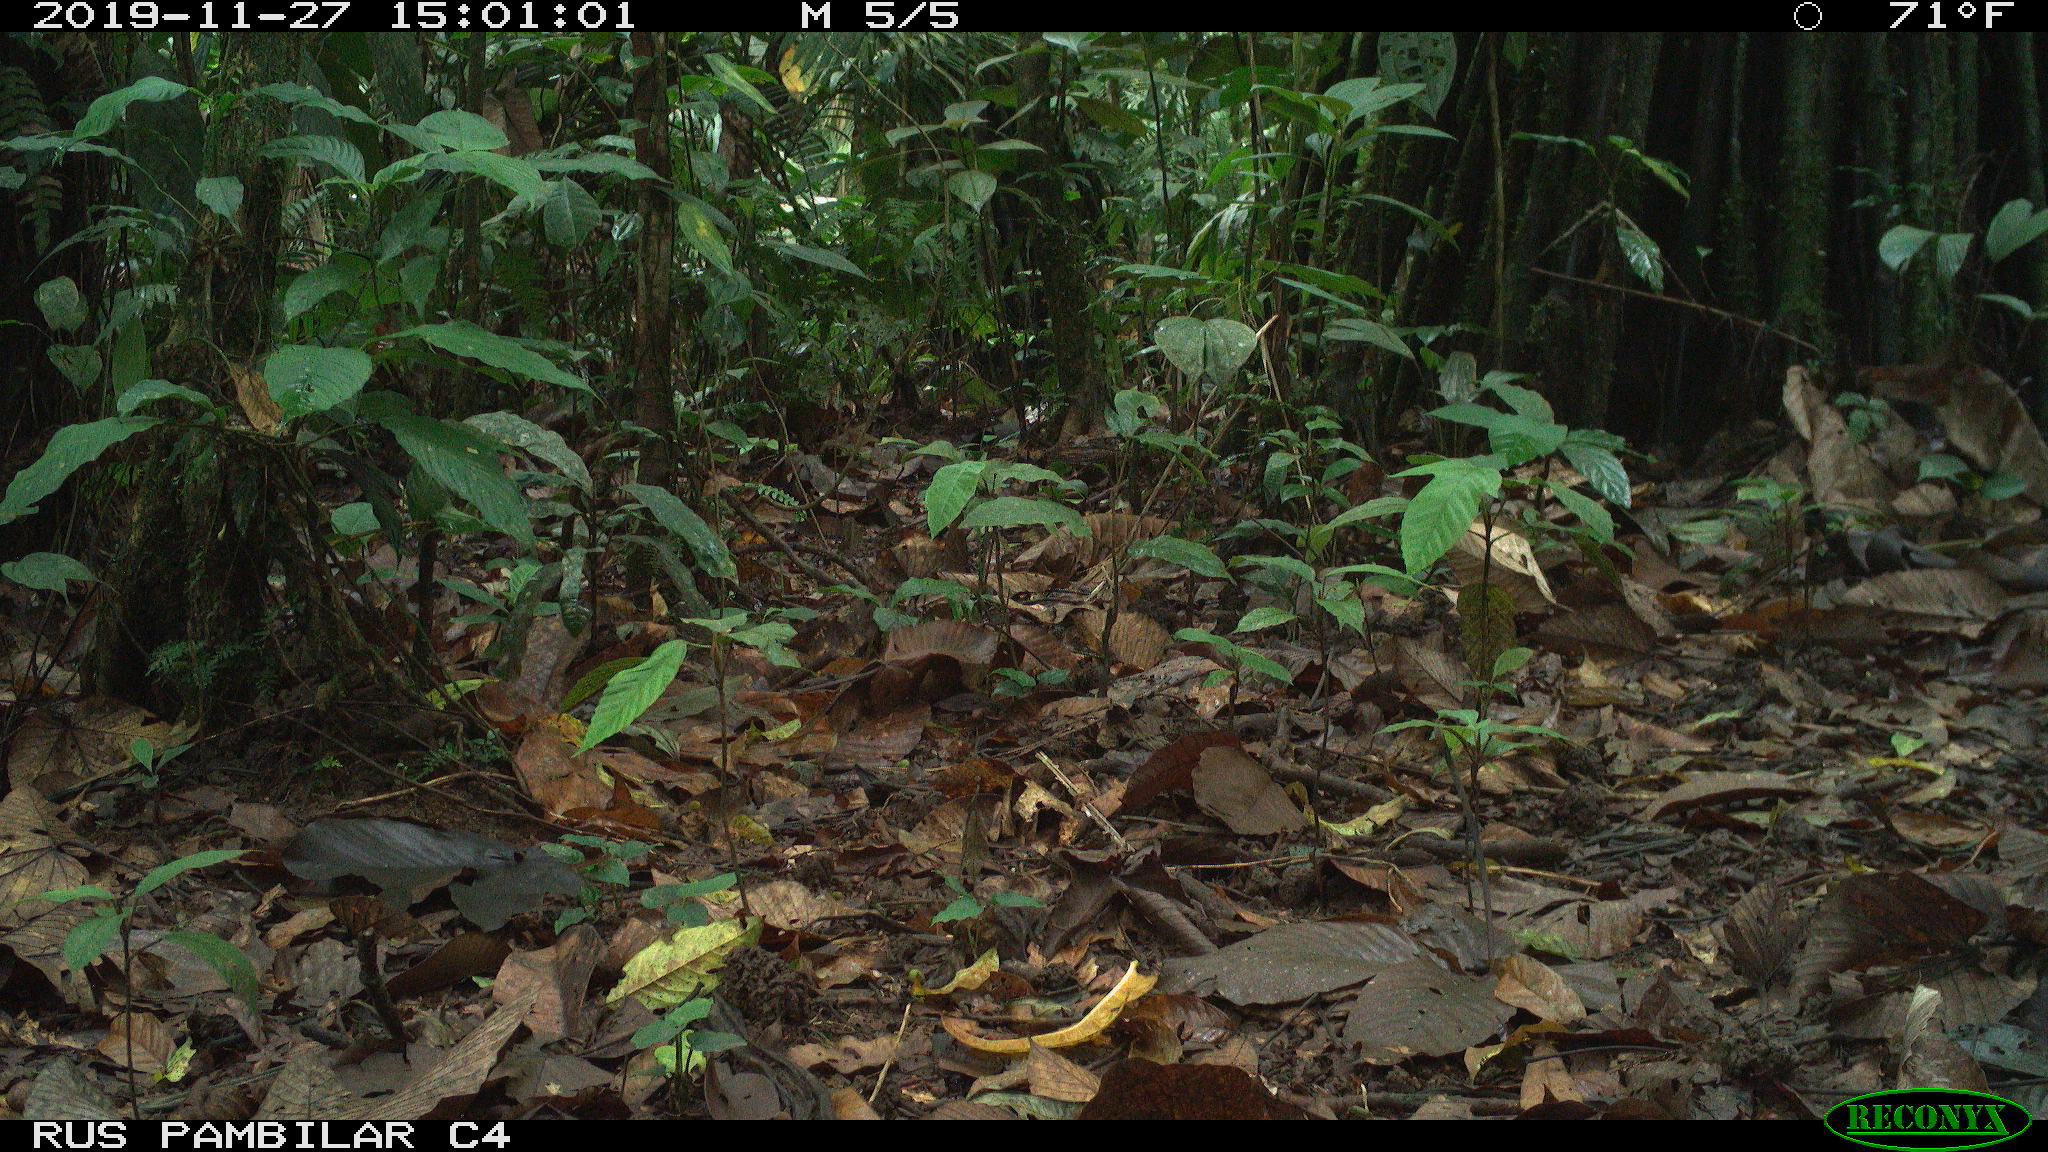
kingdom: Animalia
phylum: Chordata
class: Mammalia
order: Rodentia
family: Dasyproctidae
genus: Dasyprocta
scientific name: Dasyprocta punctata
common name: Central american agouti
